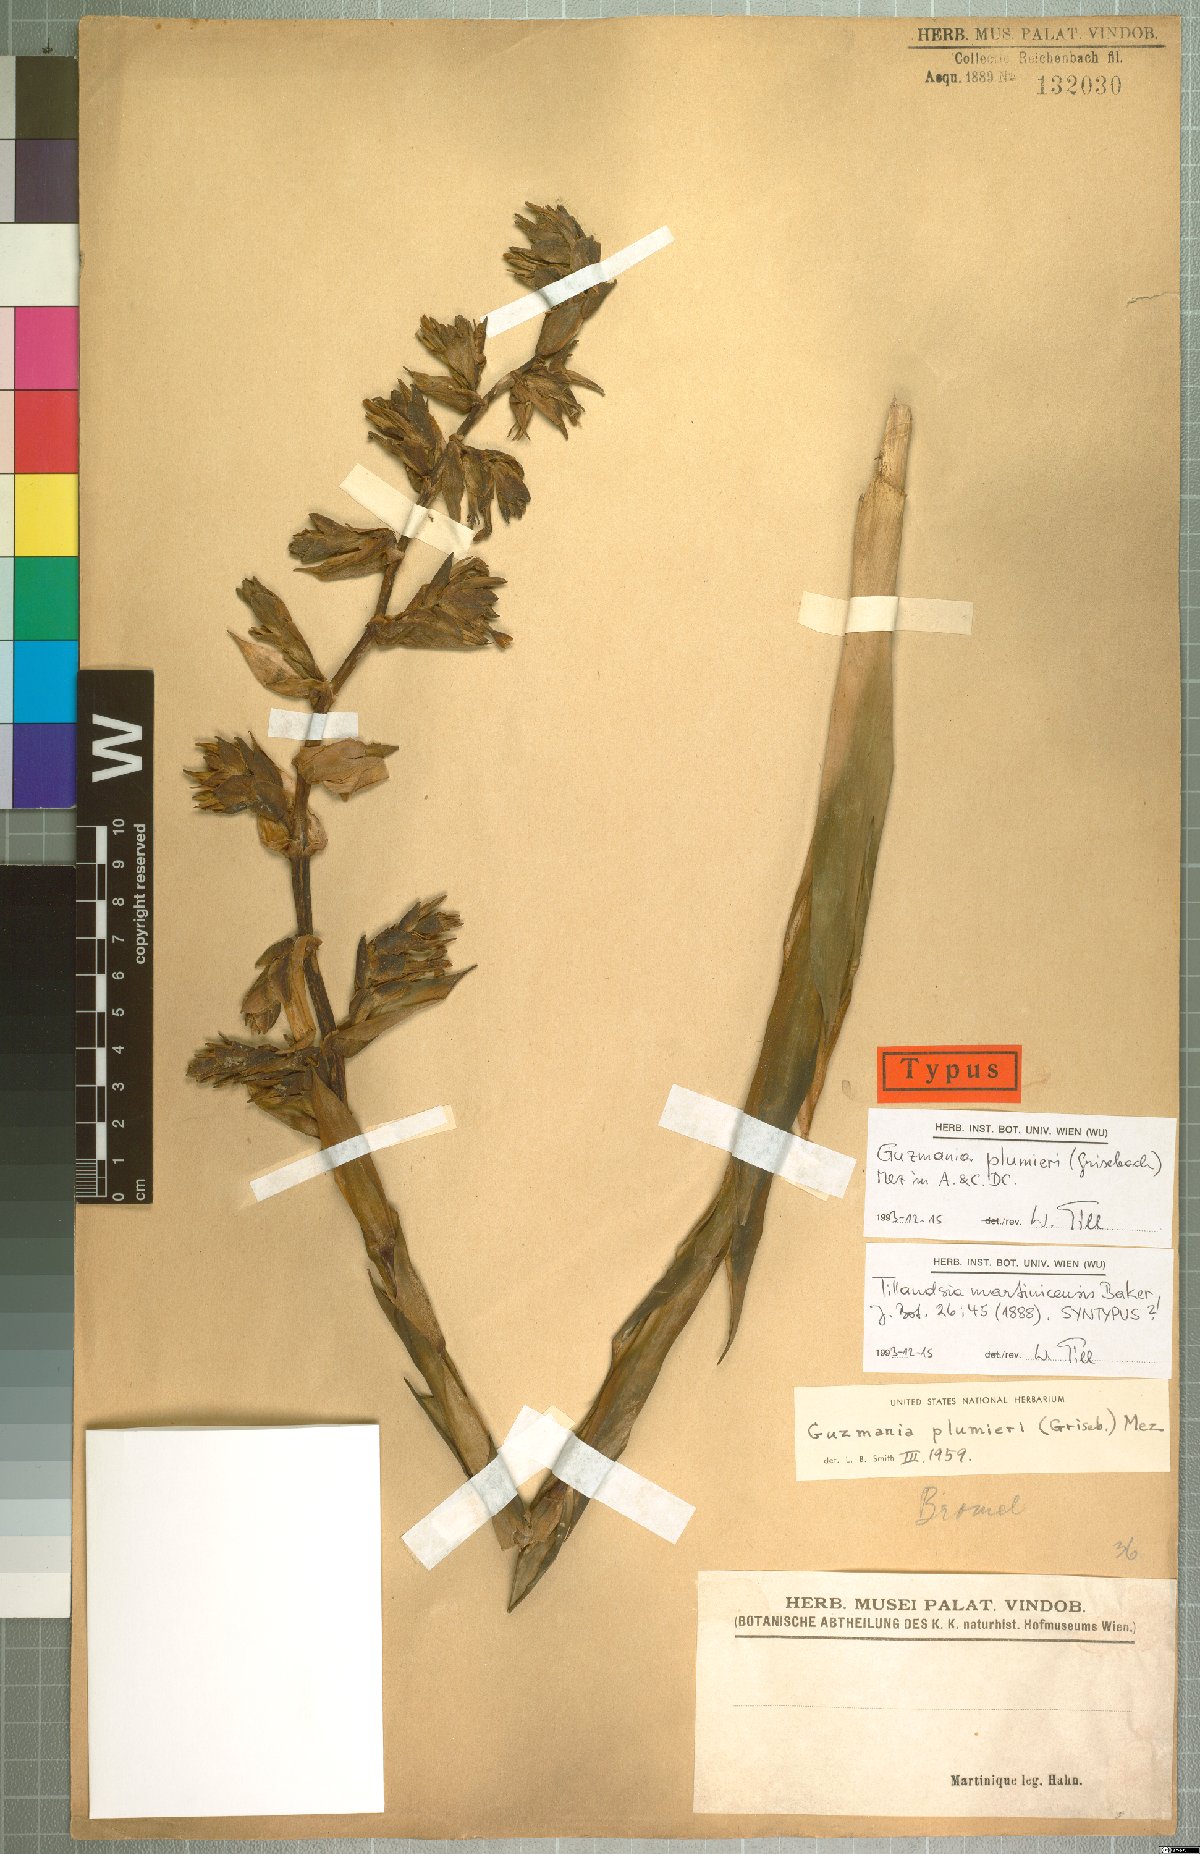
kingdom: Plantae
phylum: Tracheophyta
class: Liliopsida
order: Poales
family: Bromeliaceae
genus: Guzmania
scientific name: Guzmania plumieri
